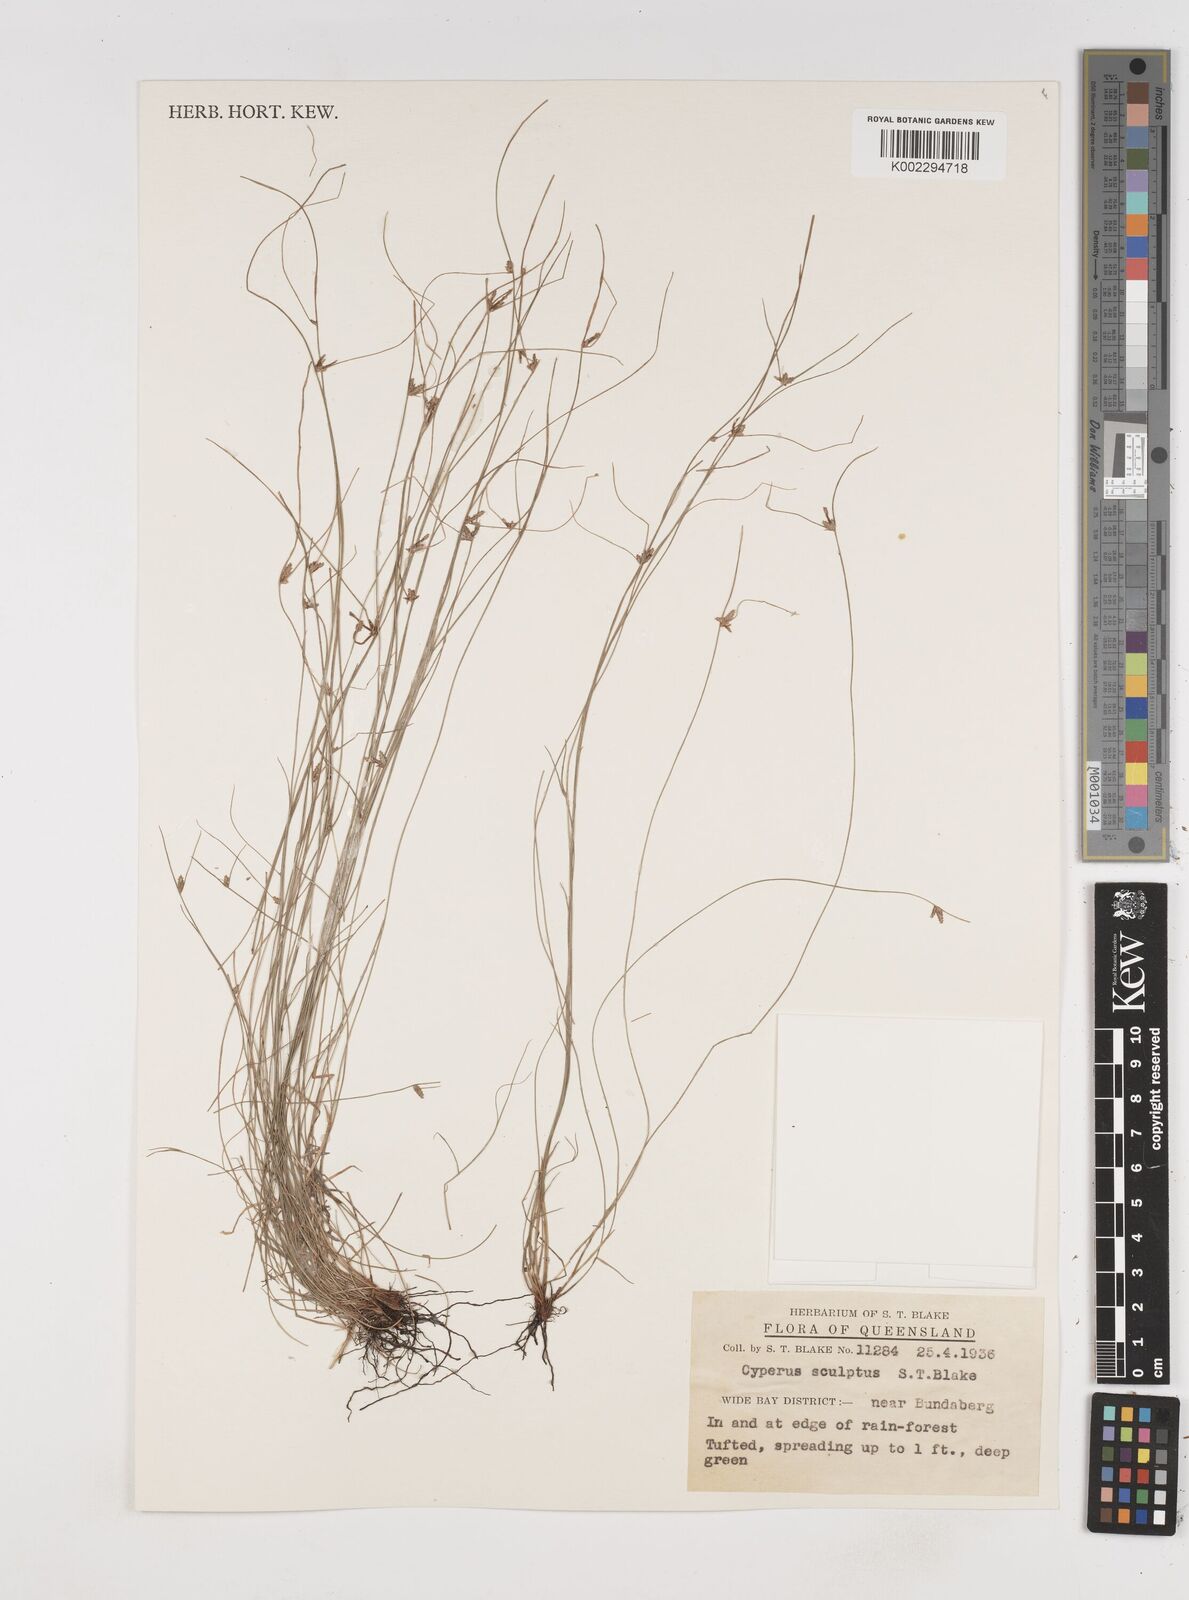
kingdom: Plantae
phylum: Tracheophyta
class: Liliopsida
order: Poales
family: Cyperaceae
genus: Cyperus
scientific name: Cyperus sculptus
